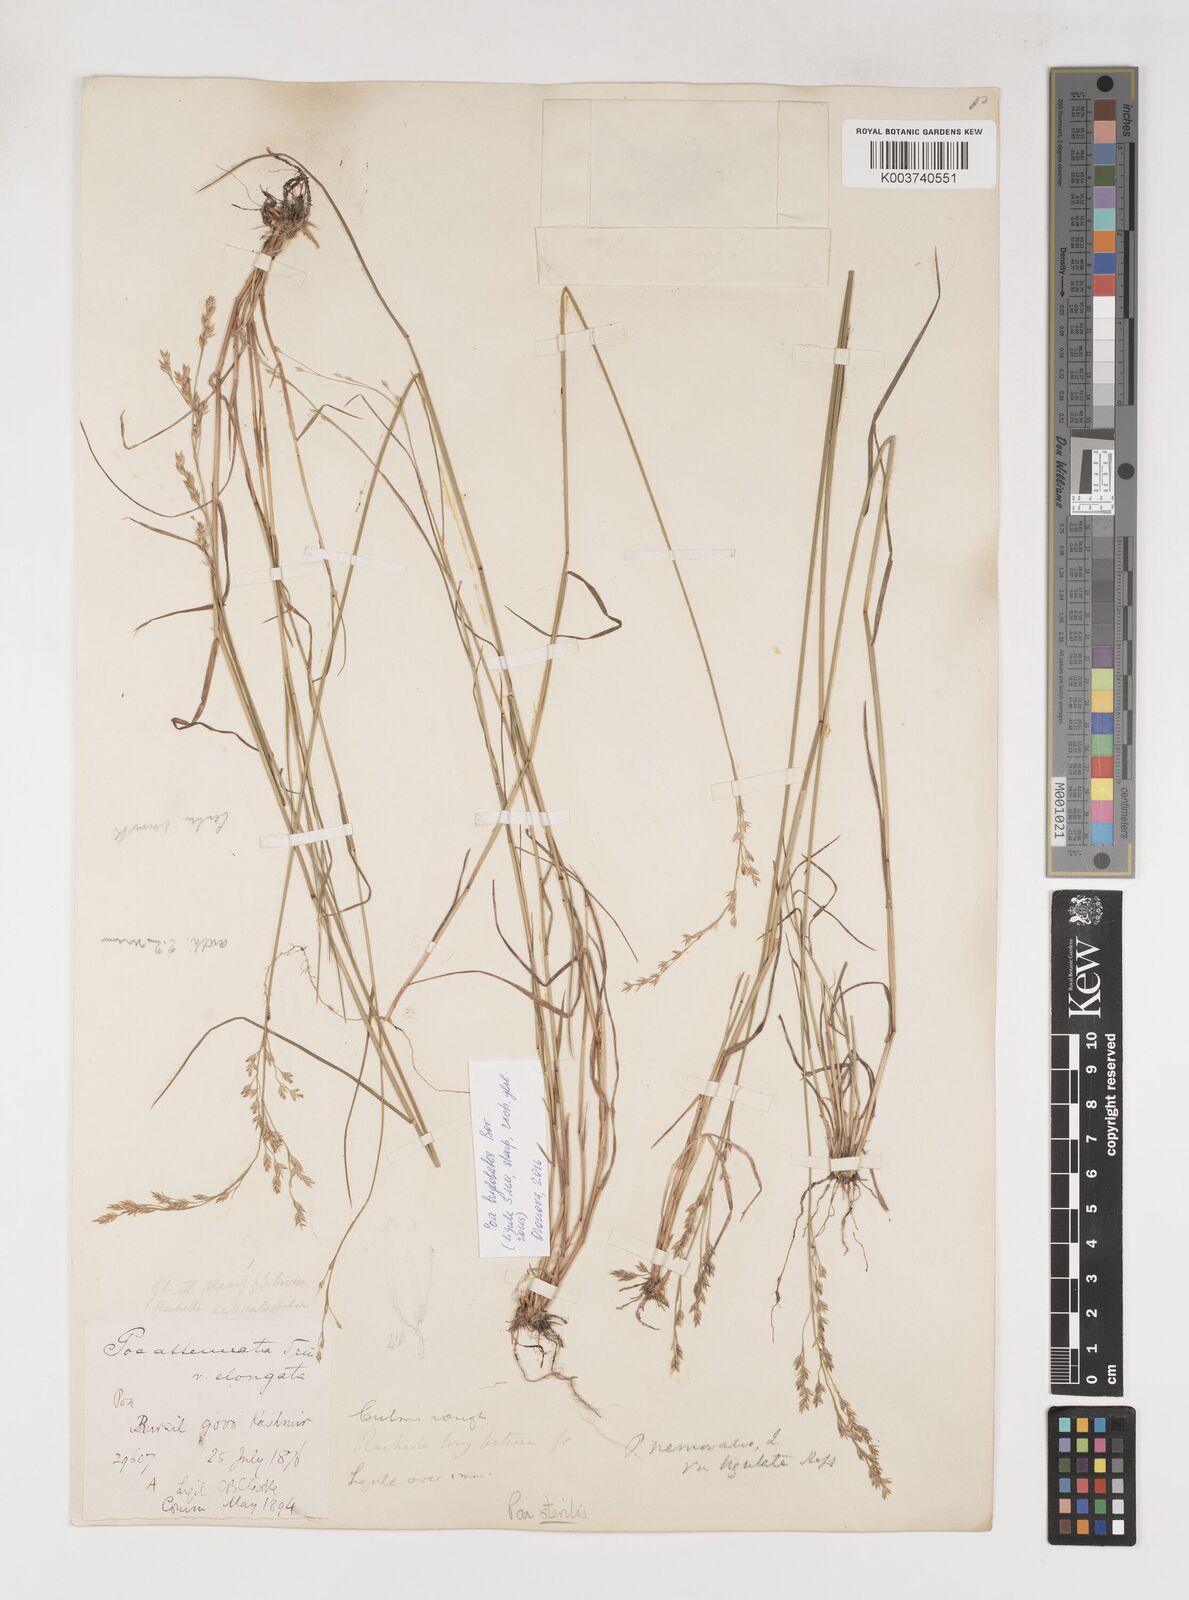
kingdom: Plantae
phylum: Tracheophyta
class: Liliopsida
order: Poales
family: Poaceae
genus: Poa
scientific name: Poa sterilis
